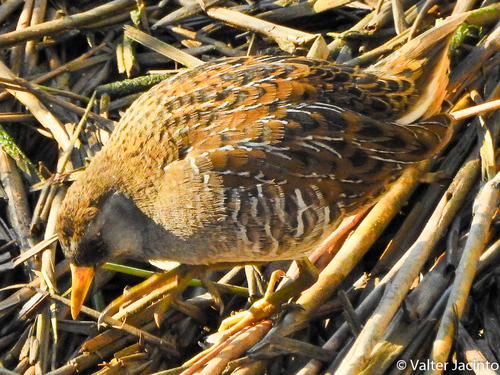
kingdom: Animalia
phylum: Chordata
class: Aves
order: Gruiformes
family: Rallidae
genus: Porzana
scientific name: Porzana carolina
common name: Sora
